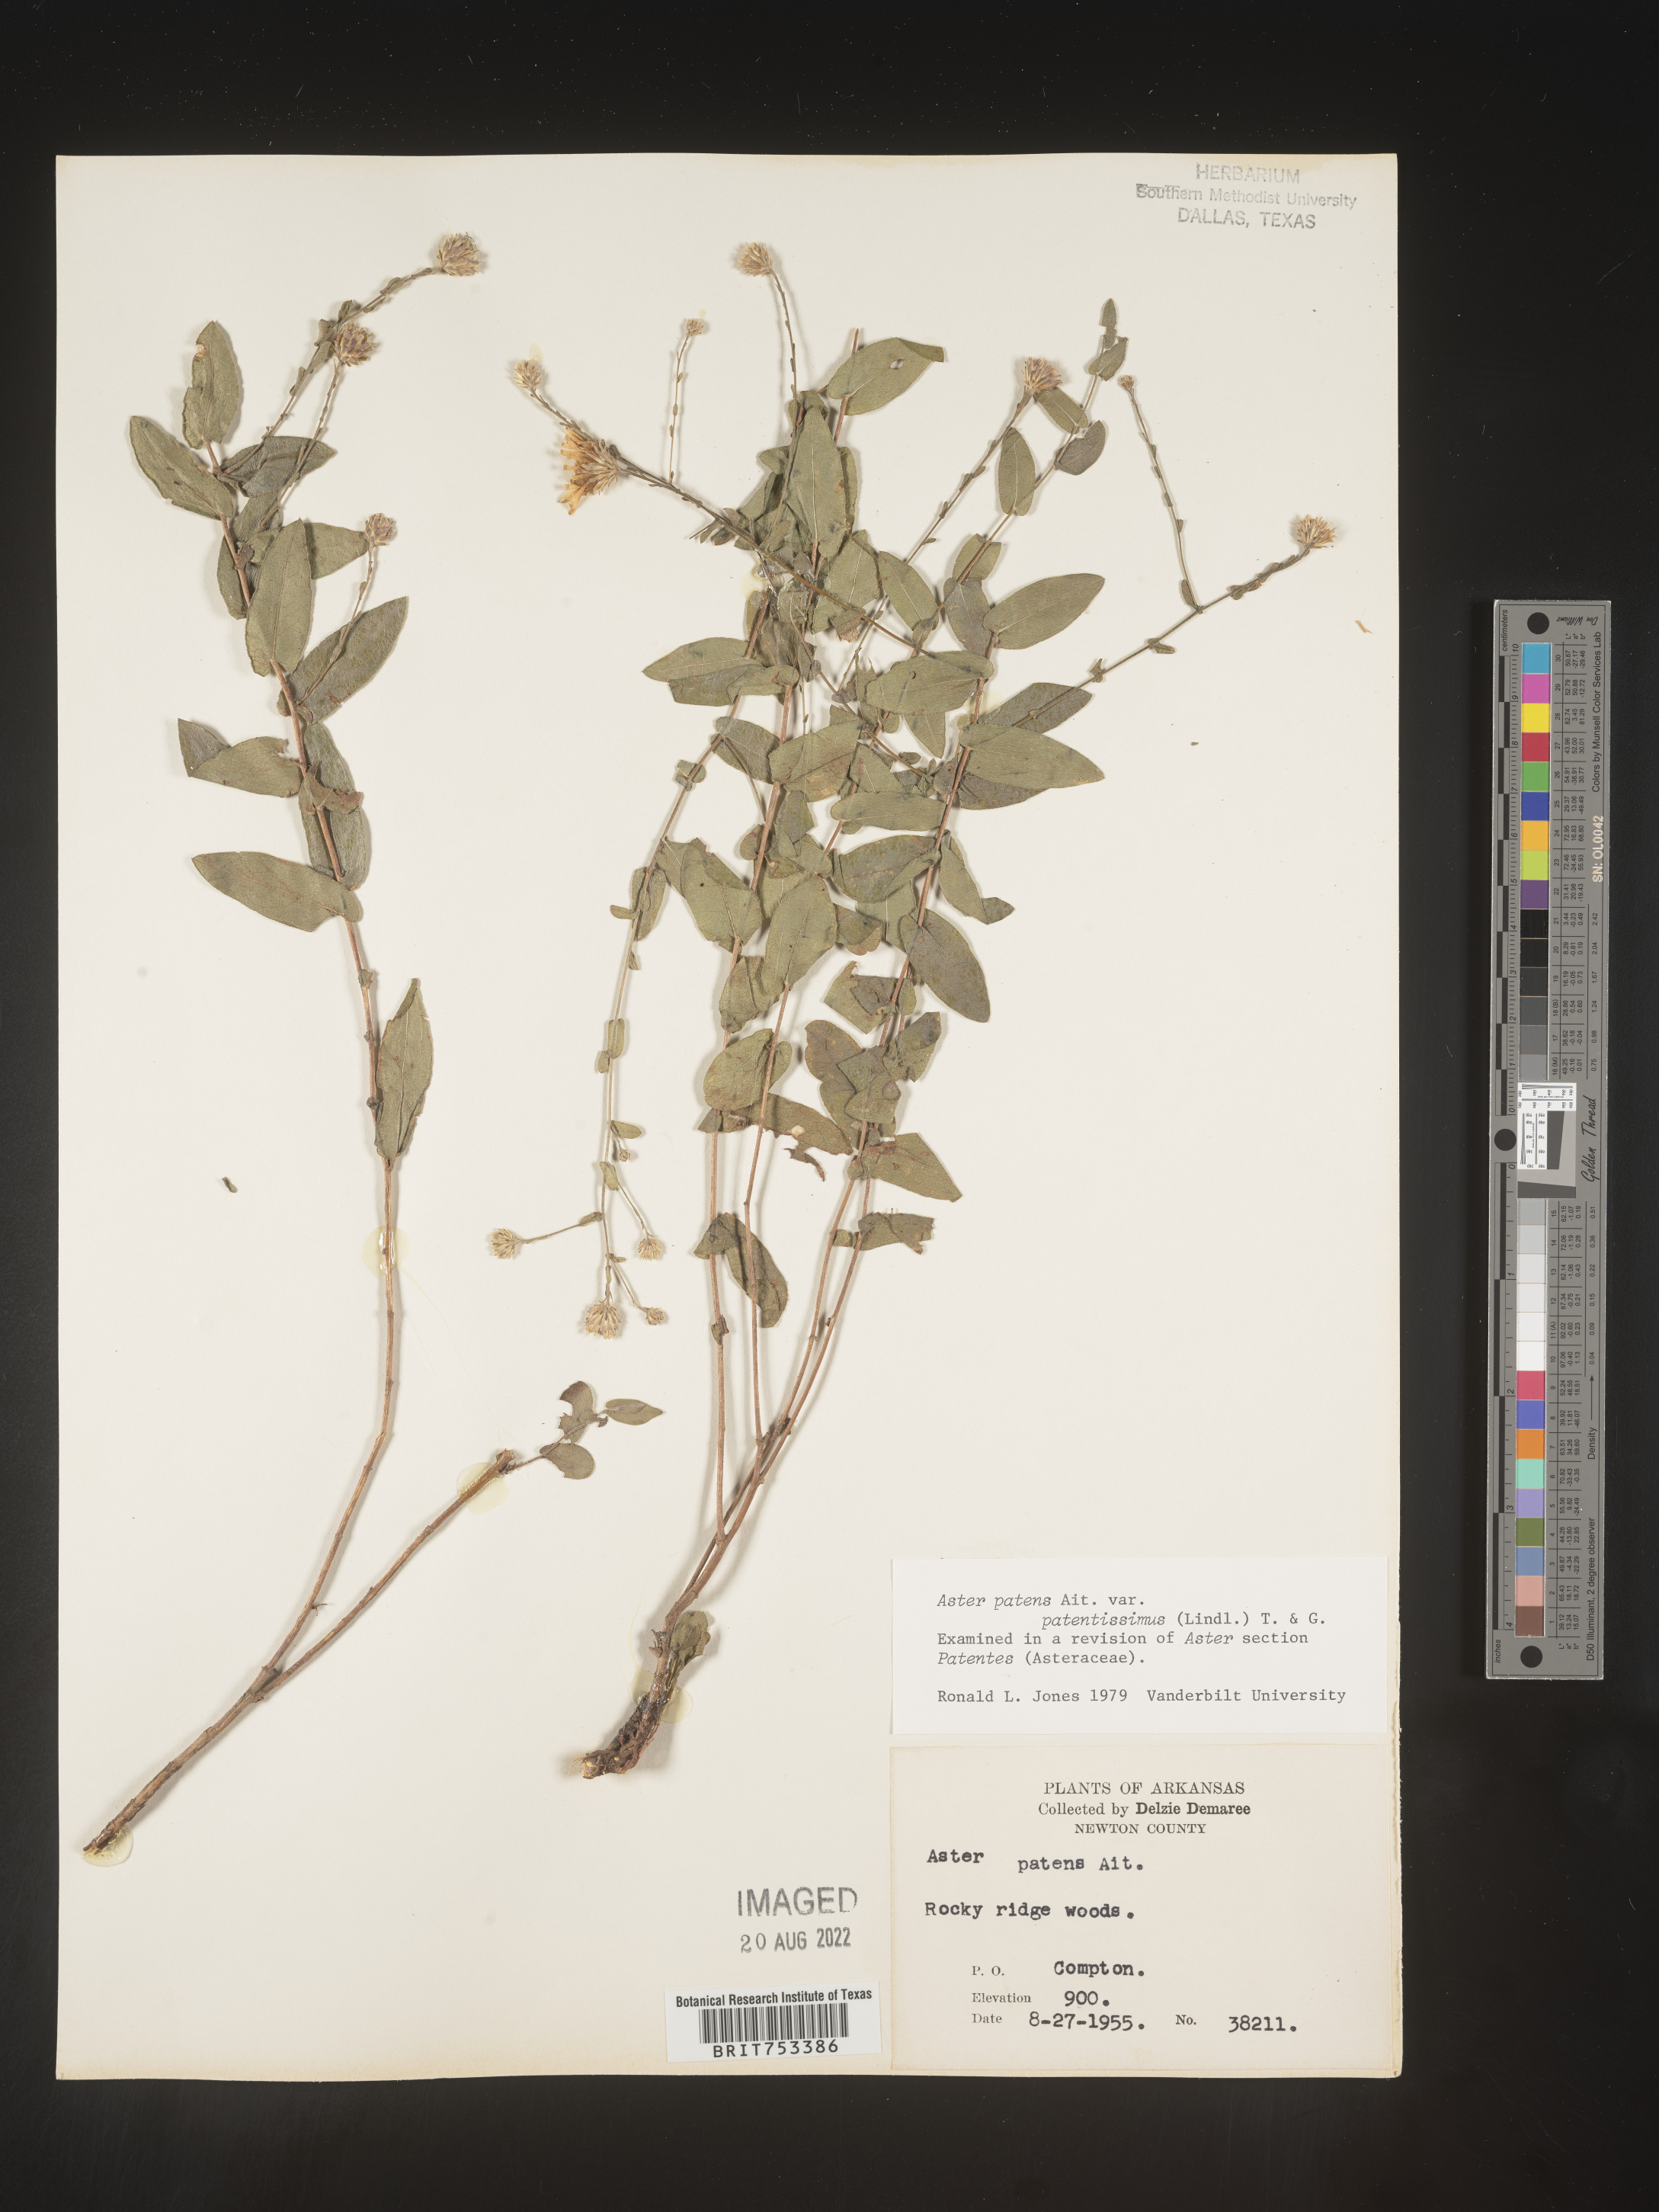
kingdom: Plantae
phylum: Tracheophyta
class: Magnoliopsida
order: Asterales
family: Asteraceae
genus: Symphyotrichum
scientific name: Symphyotrichum patens
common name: Late purple aster
